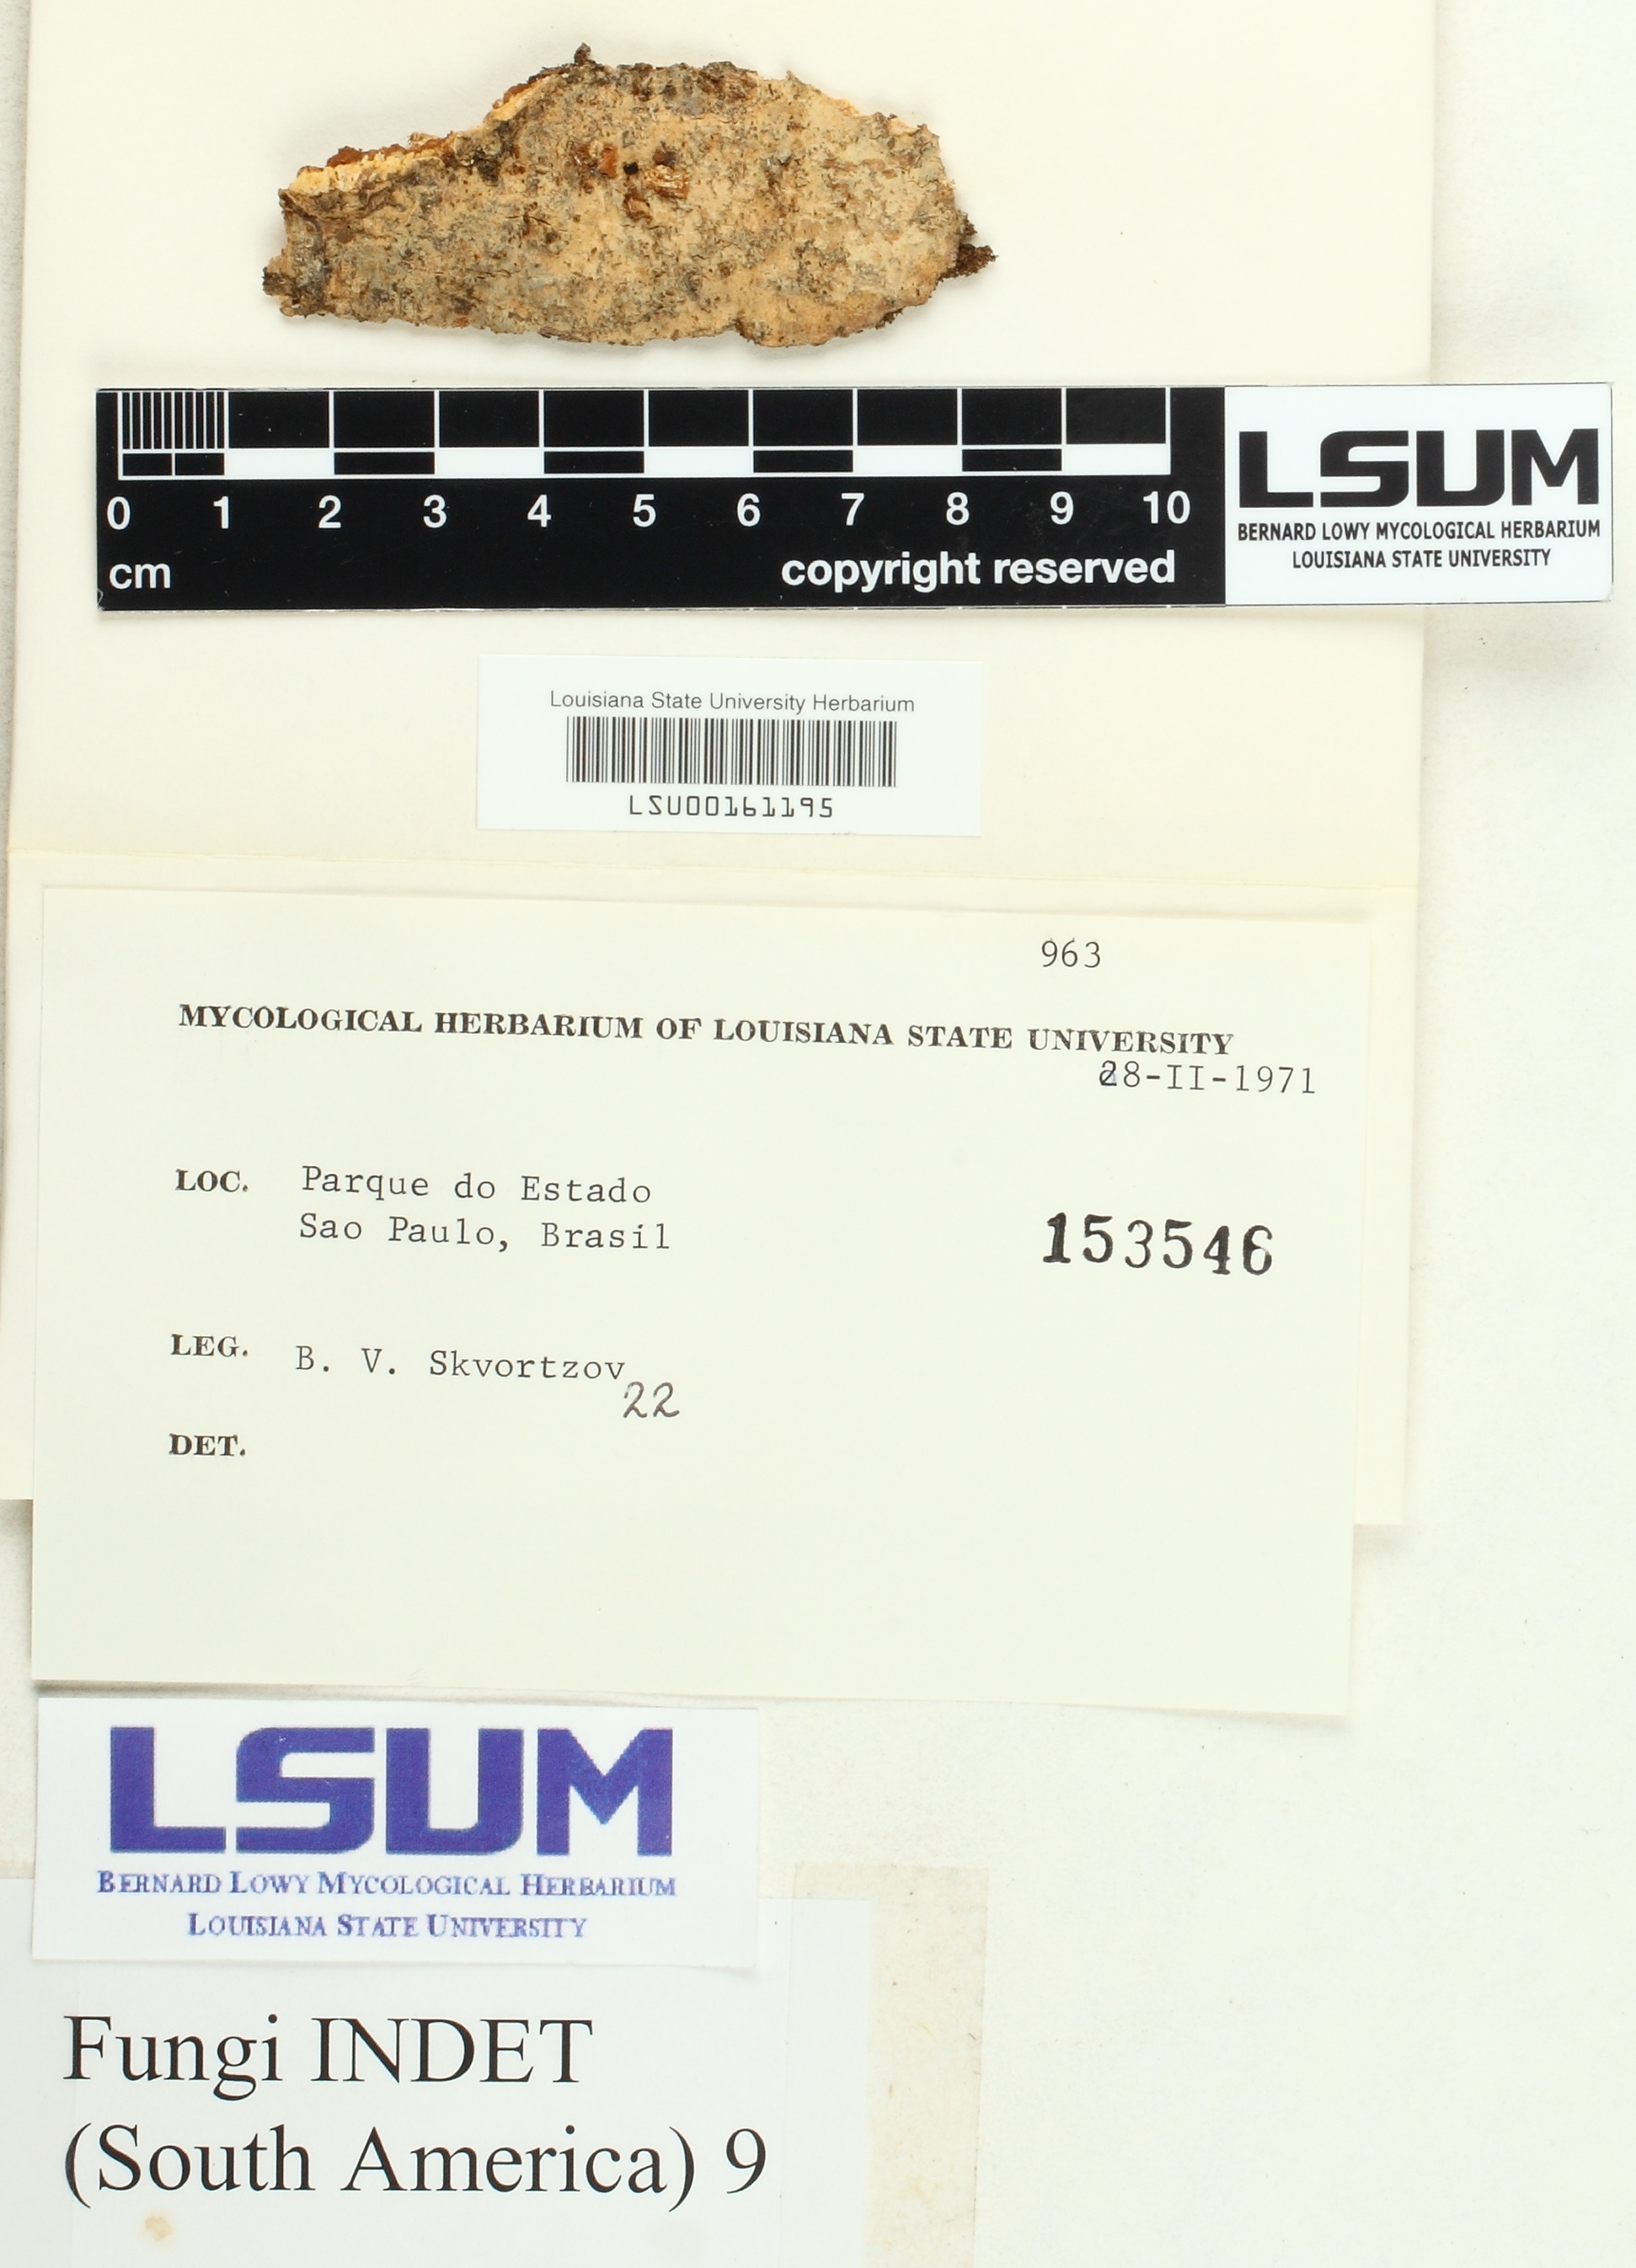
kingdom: Fungi
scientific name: Fungi
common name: Fungi
